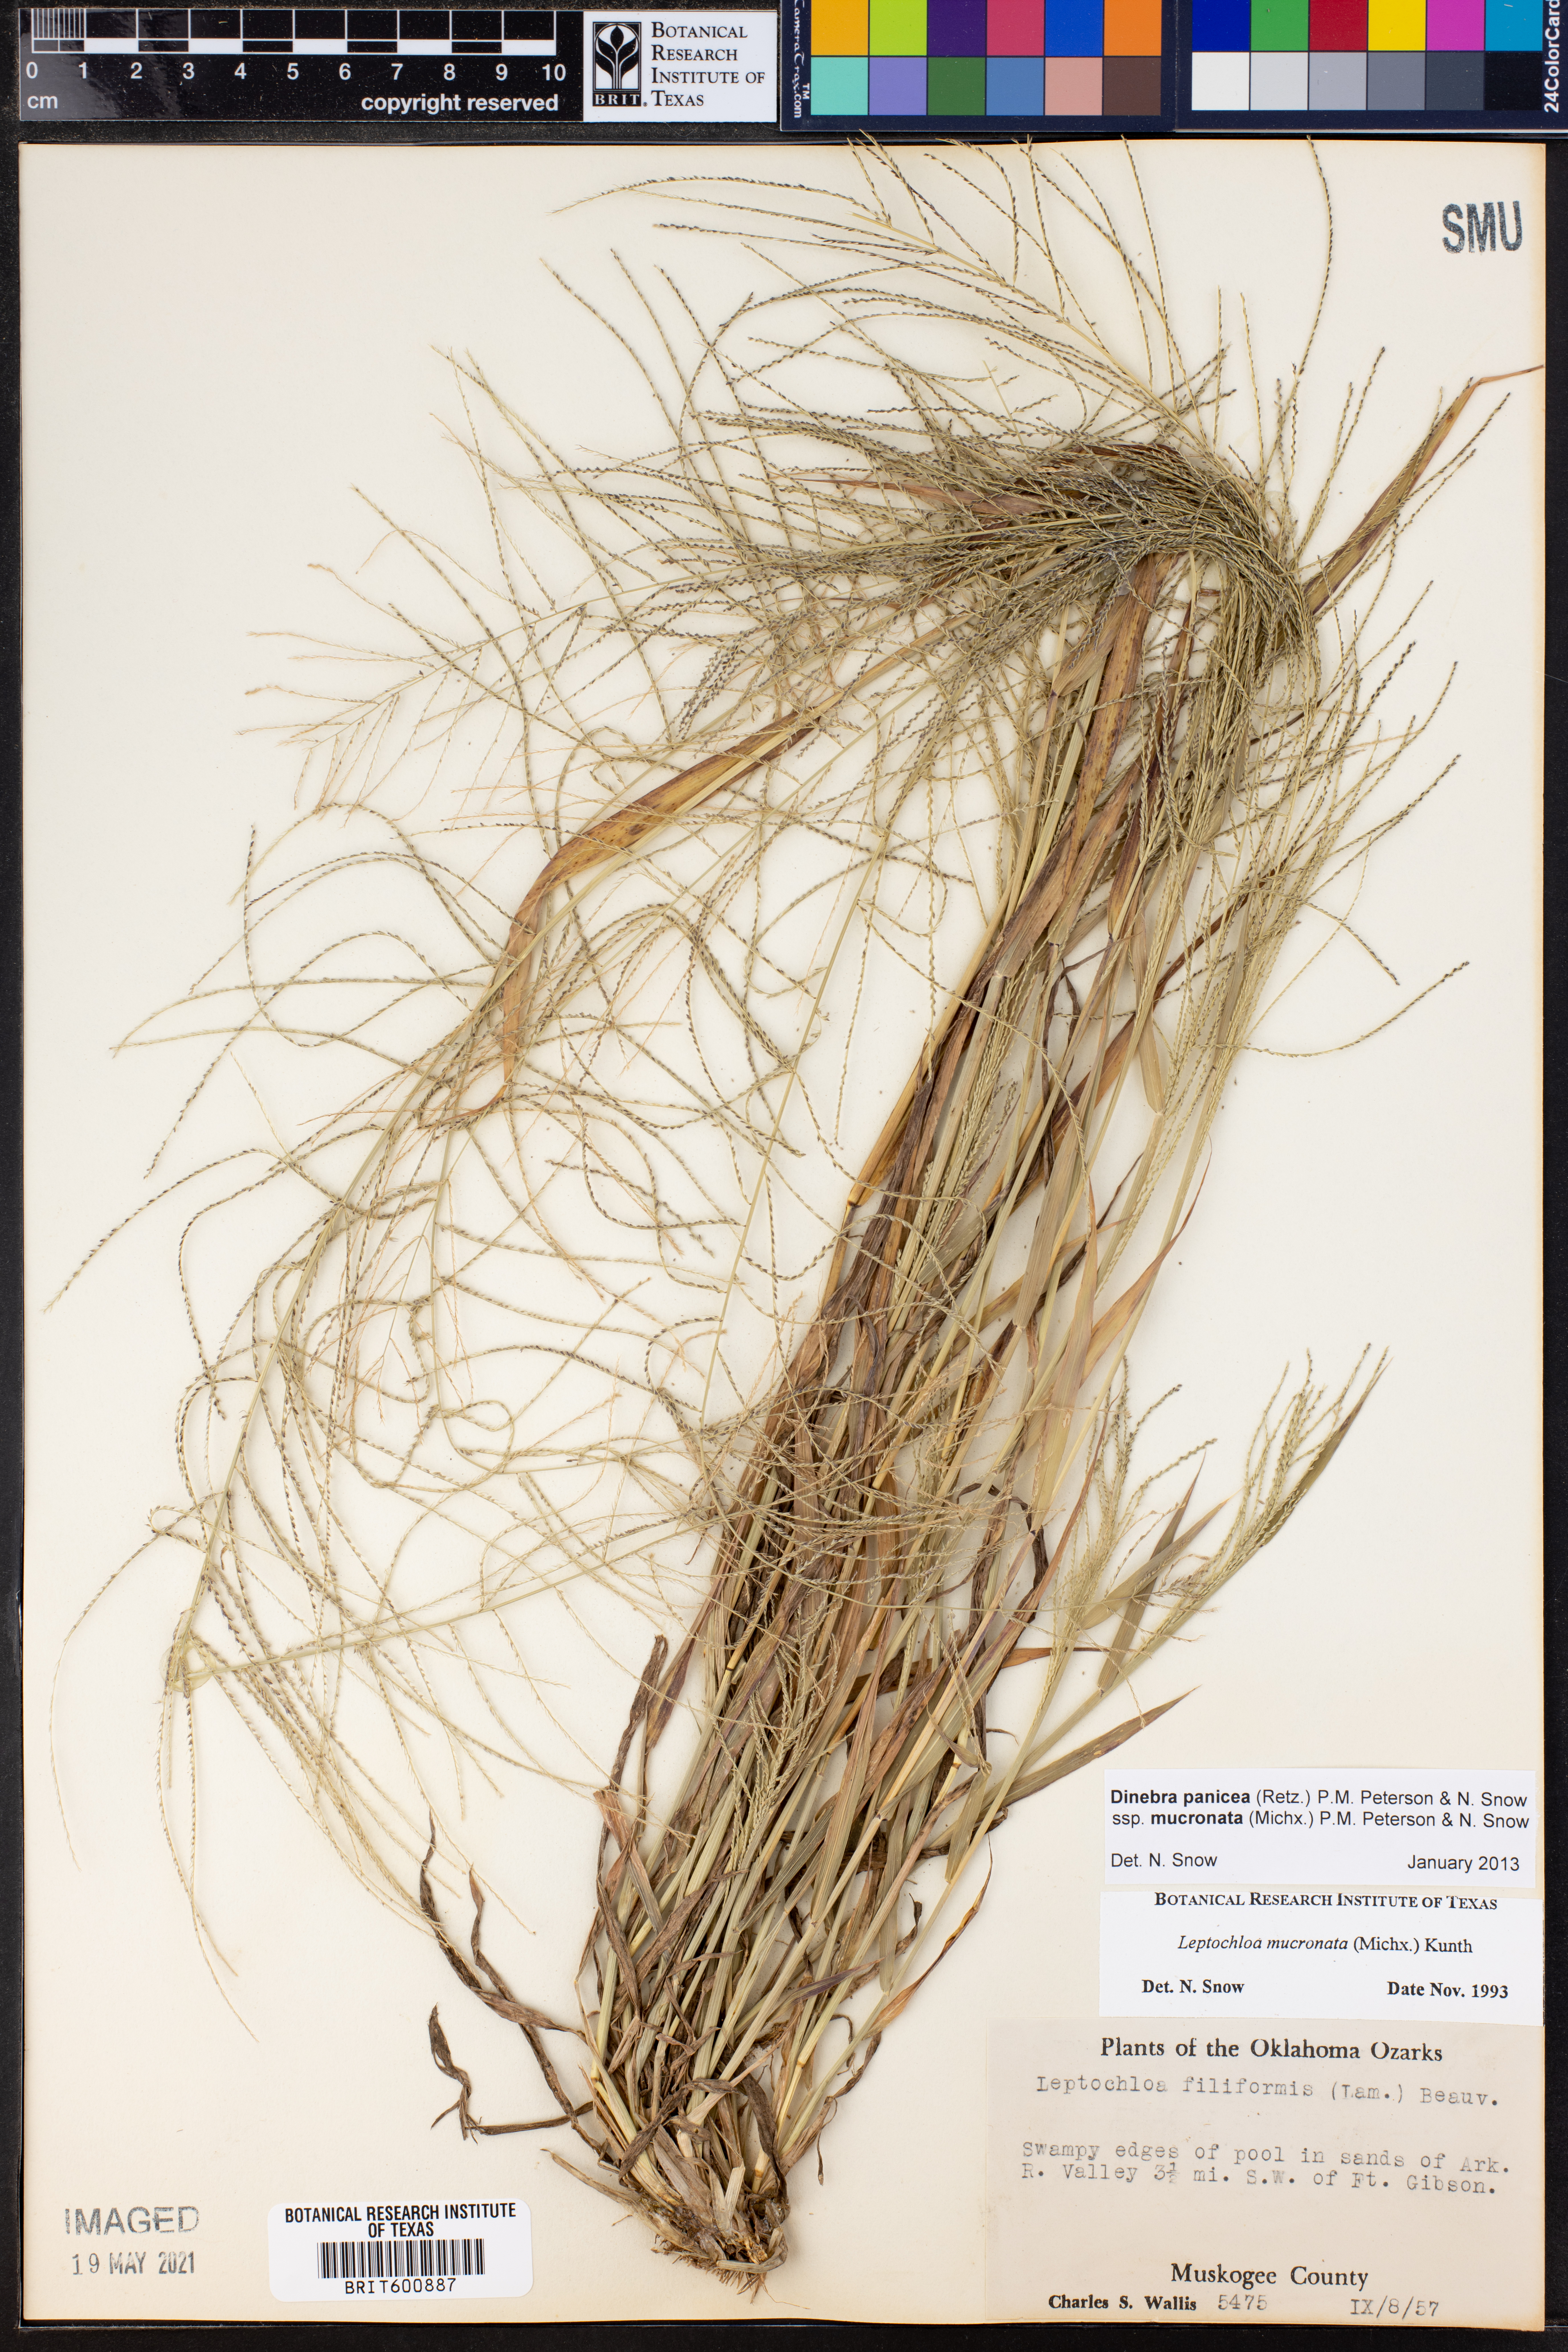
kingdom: Plantae
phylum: Tracheophyta
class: Liliopsida
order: Poales
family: Poaceae
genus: Leptochloa
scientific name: Leptochloa panicea
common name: Mucronate sprangletop
